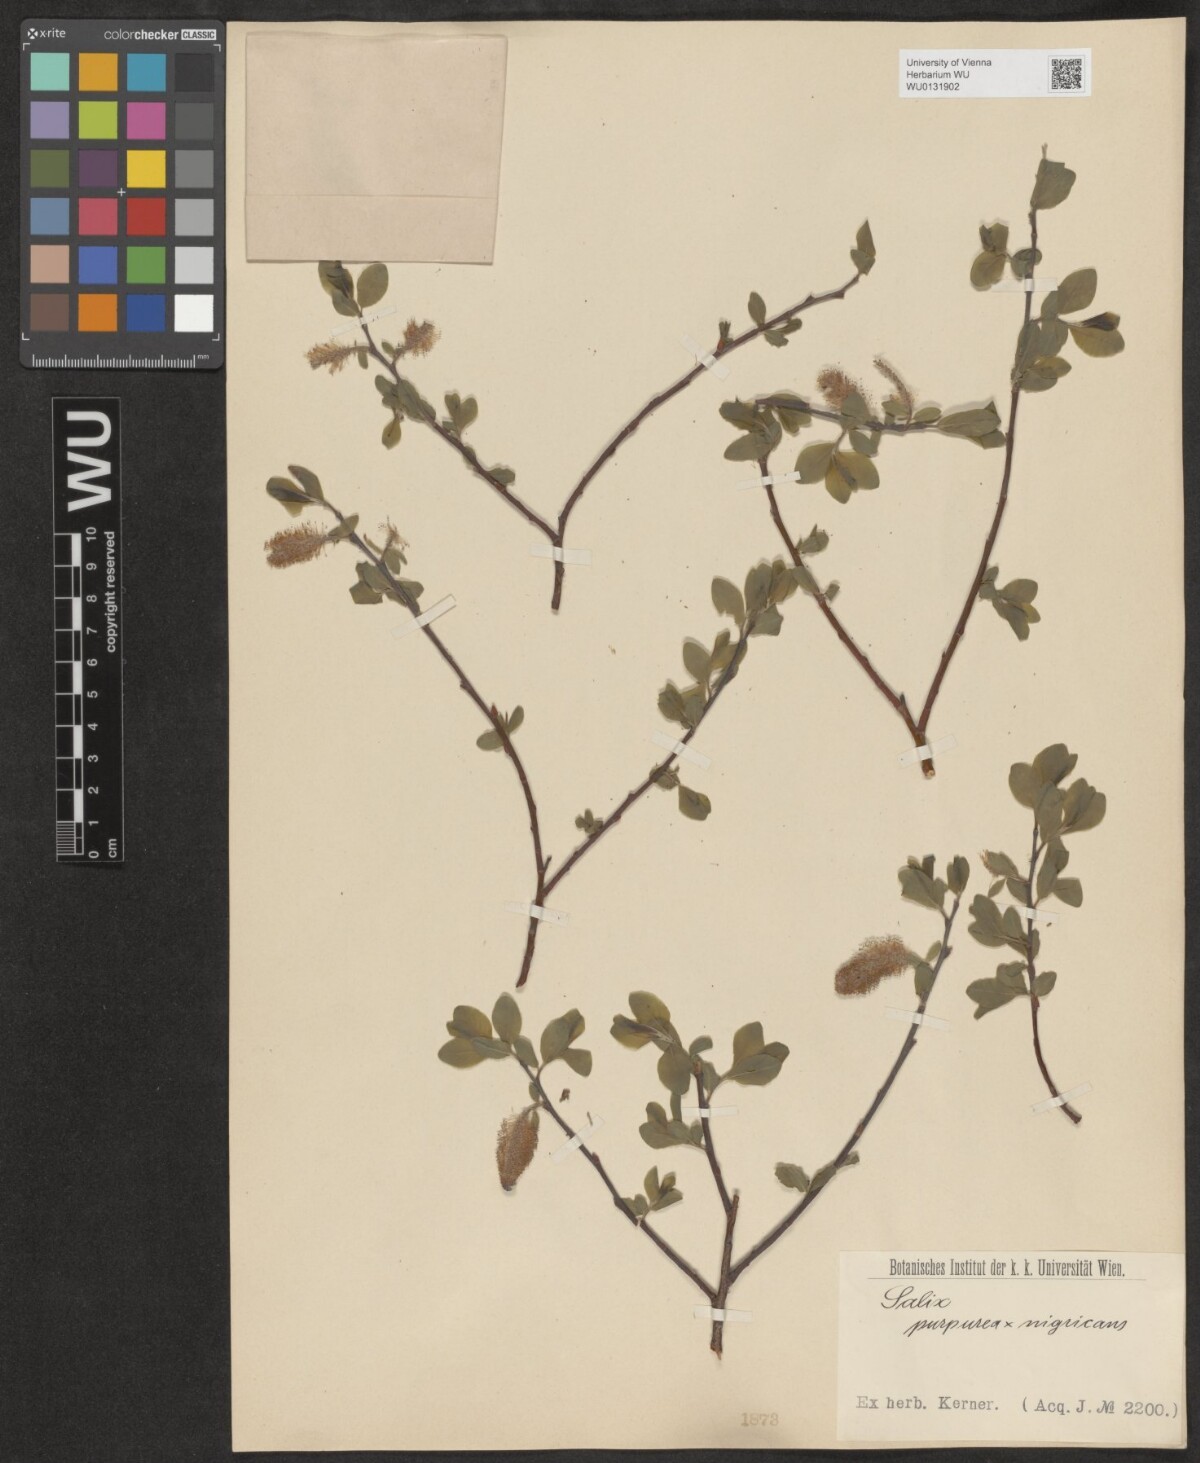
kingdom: Plantae
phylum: Tracheophyta
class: Magnoliopsida
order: Malpighiales
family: Salicaceae
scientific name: Salicaceae
